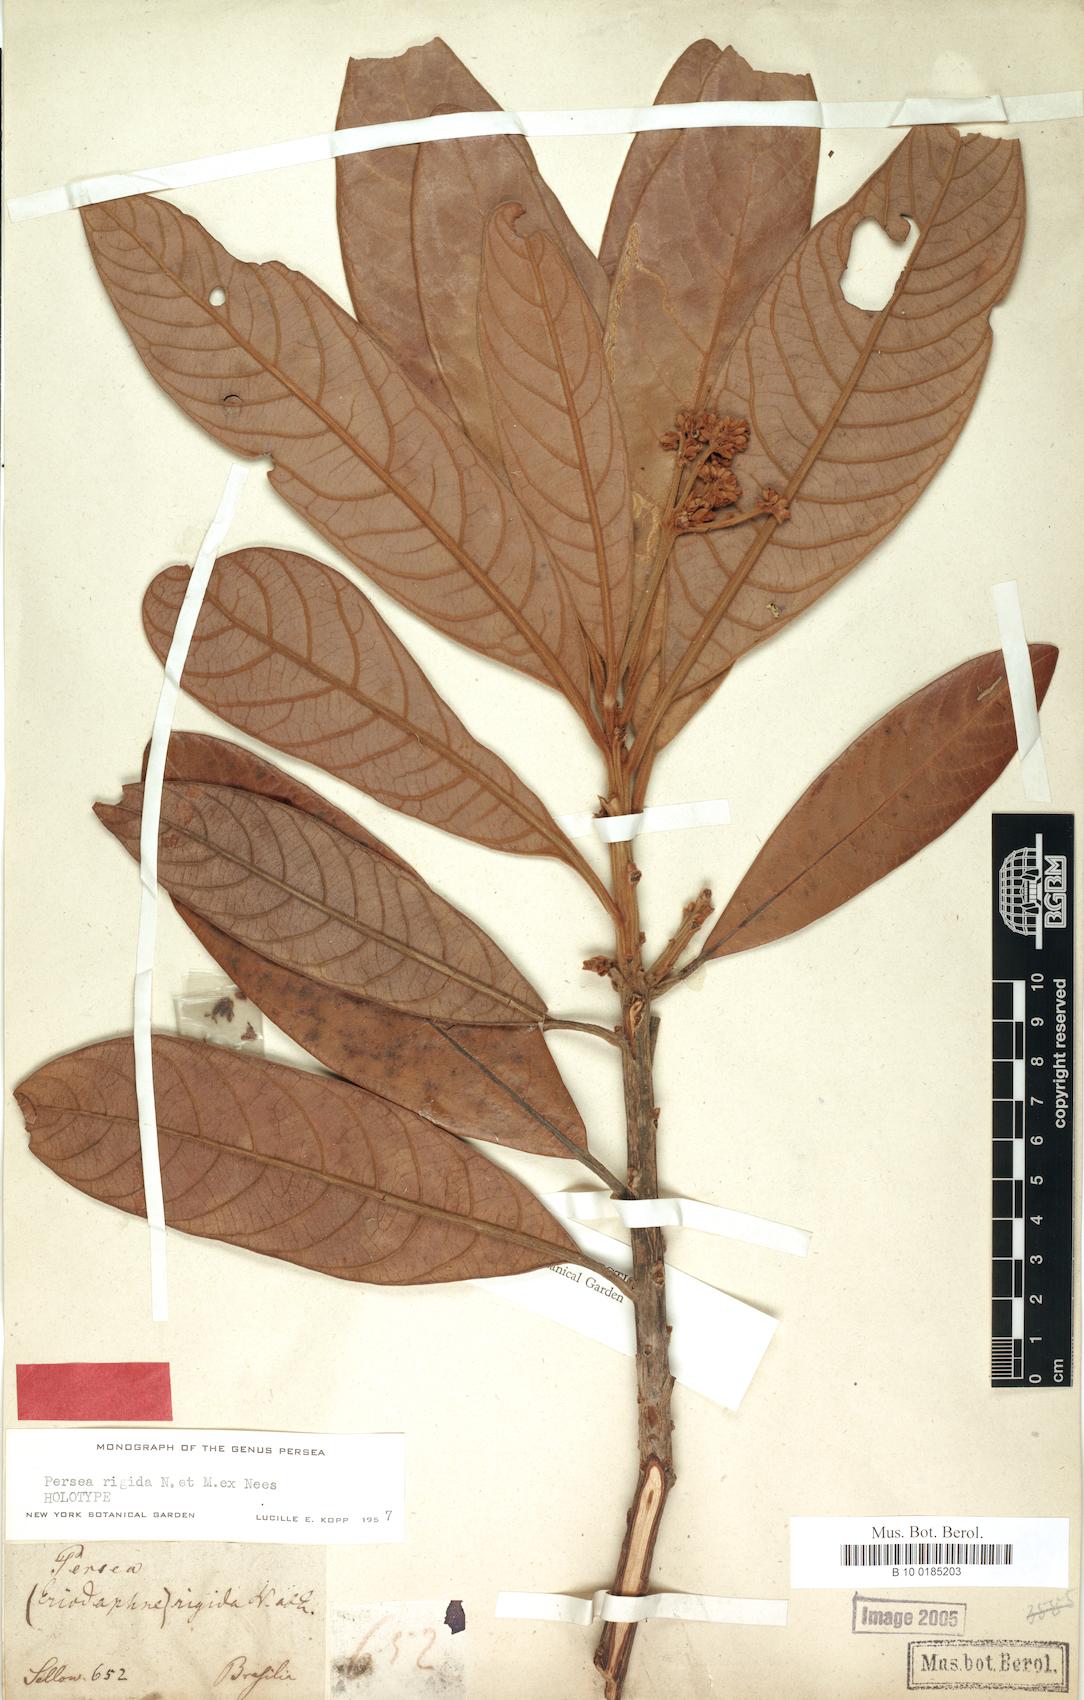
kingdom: Plantae
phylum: Tracheophyta
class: Magnoliopsida
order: Laurales
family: Lauraceae
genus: Persea
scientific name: Persea rigida
